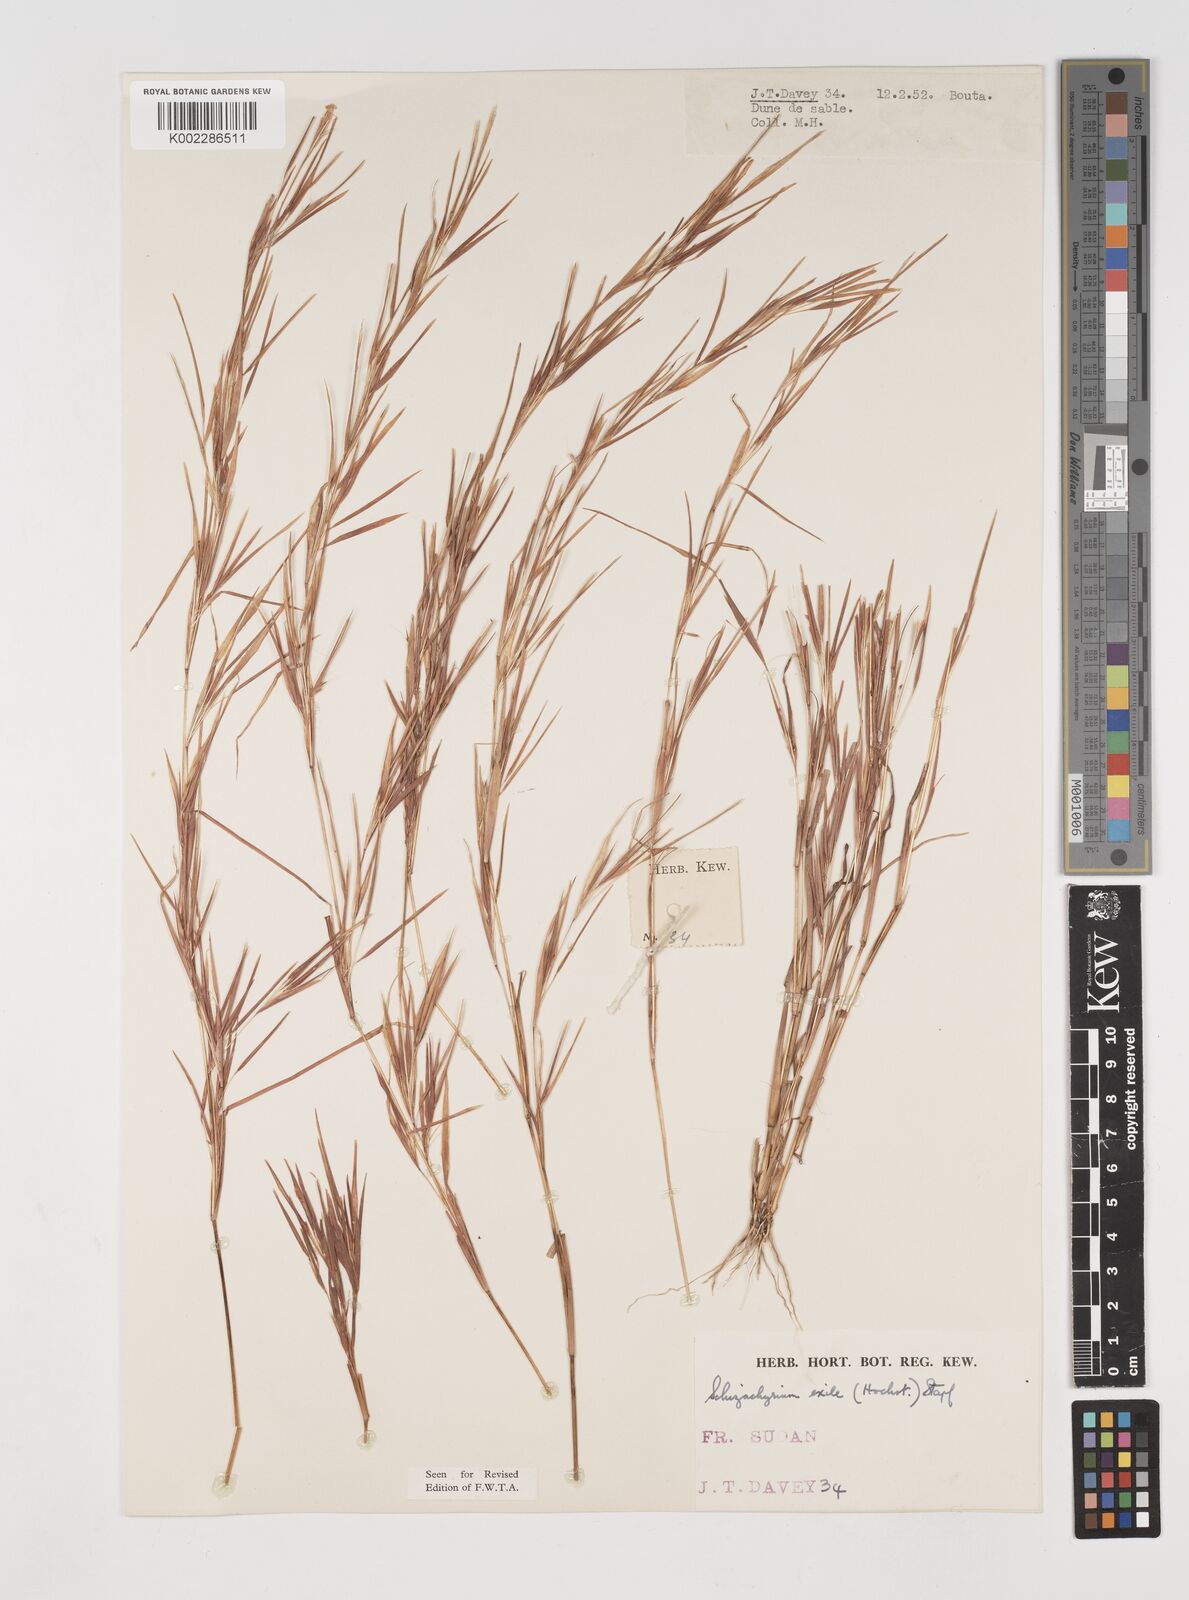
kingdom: Plantae
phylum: Tracheophyta
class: Liliopsida
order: Poales
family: Poaceae
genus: Schizachyrium
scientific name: Schizachyrium exile
